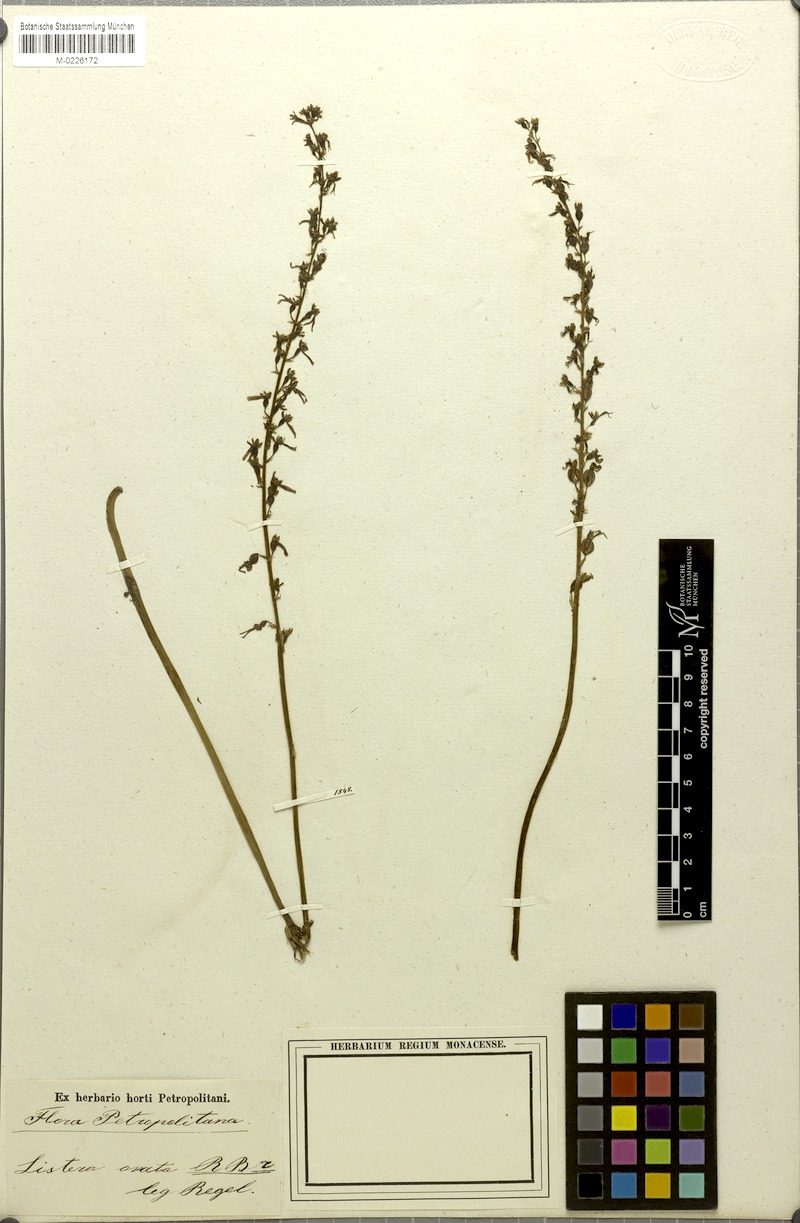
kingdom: Plantae
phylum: Tracheophyta
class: Liliopsida
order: Asparagales
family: Orchidaceae
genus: Neottia
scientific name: Neottia ovata
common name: Common twayblade
